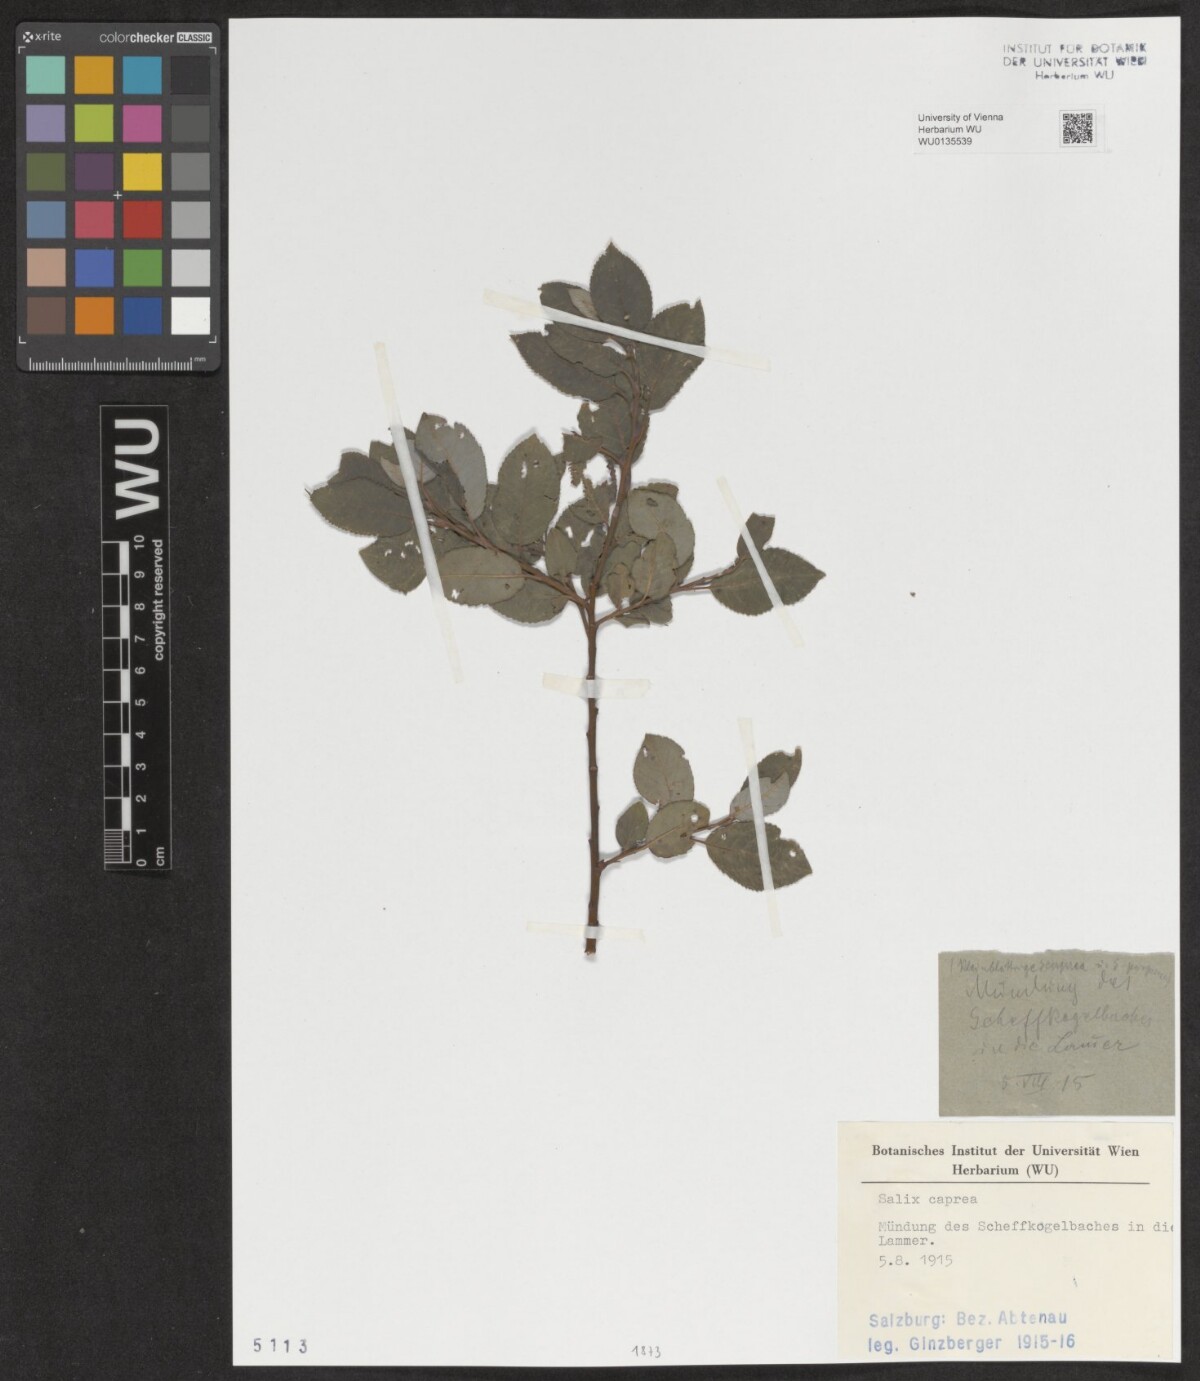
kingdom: Plantae
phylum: Tracheophyta
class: Magnoliopsida
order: Malpighiales
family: Salicaceae
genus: Salix
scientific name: Salix caprea
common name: Goat willow
